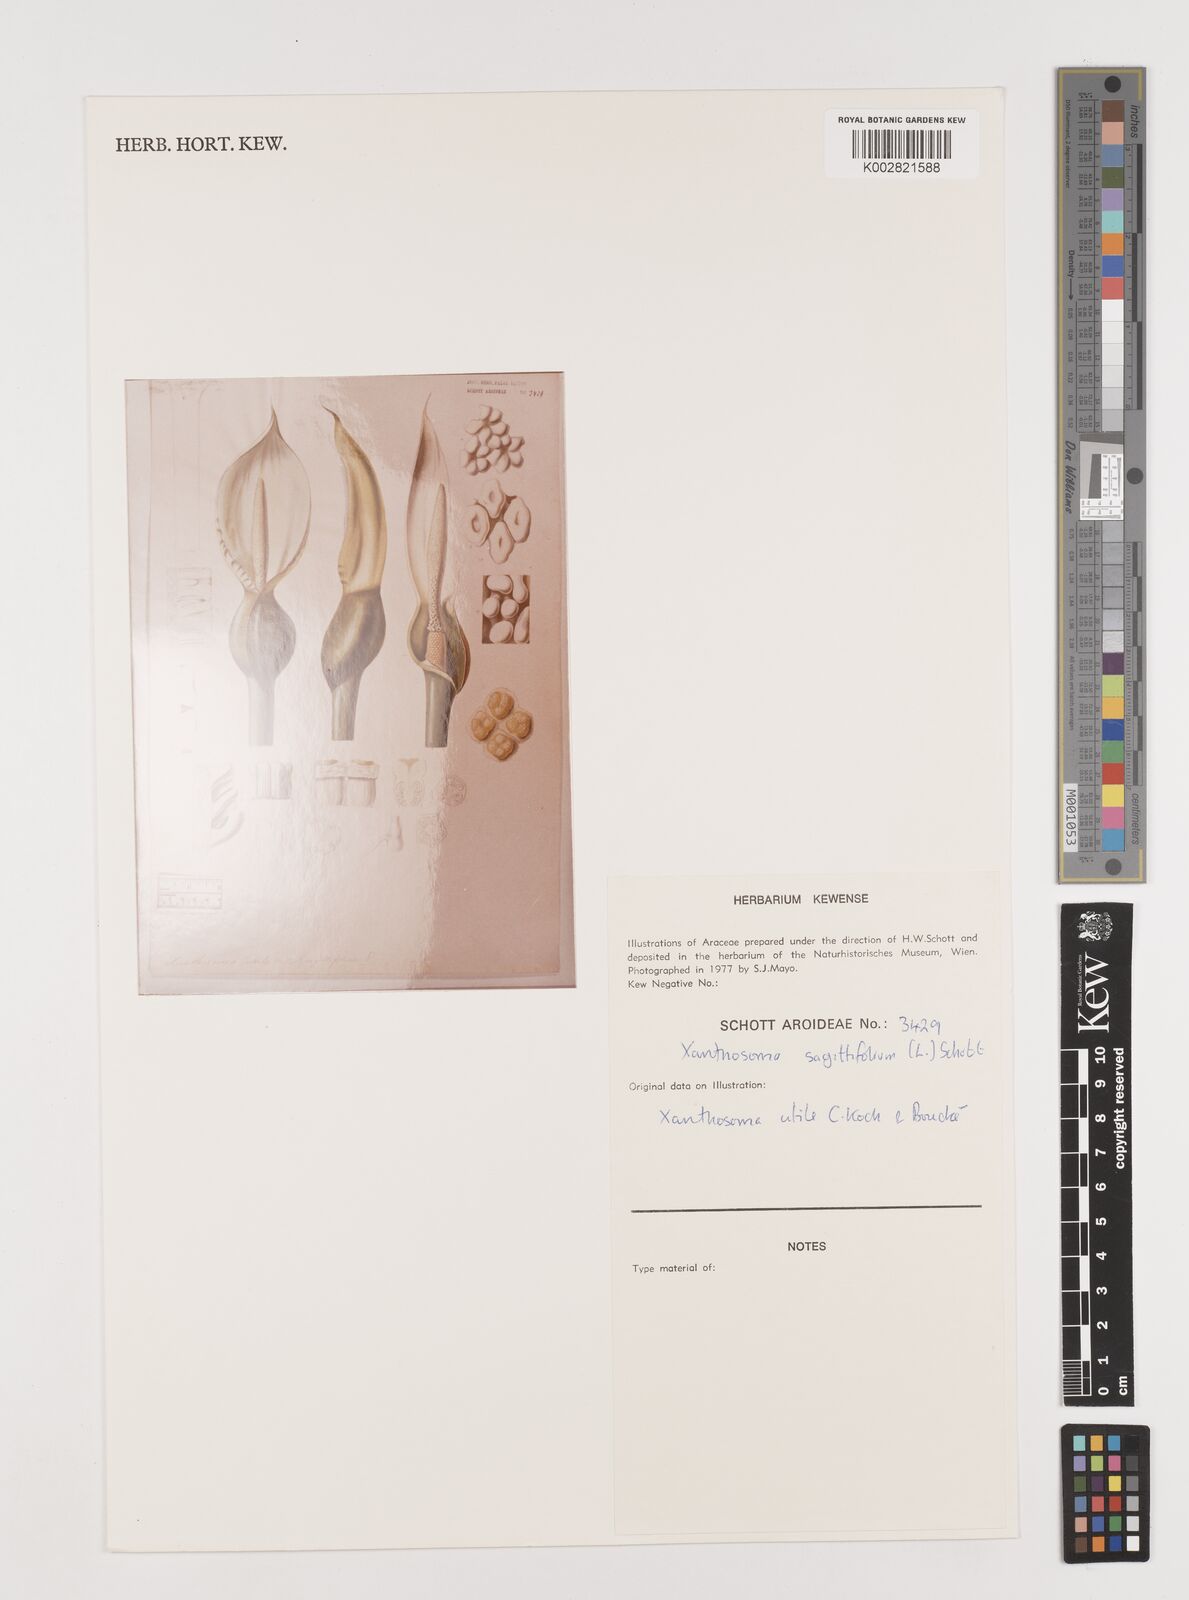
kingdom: Plantae
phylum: Tracheophyta
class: Liliopsida
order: Alismatales
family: Araceae
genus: Xanthosoma
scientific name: Xanthosoma sagittifolium
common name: Arrowleaf elephant's ear
